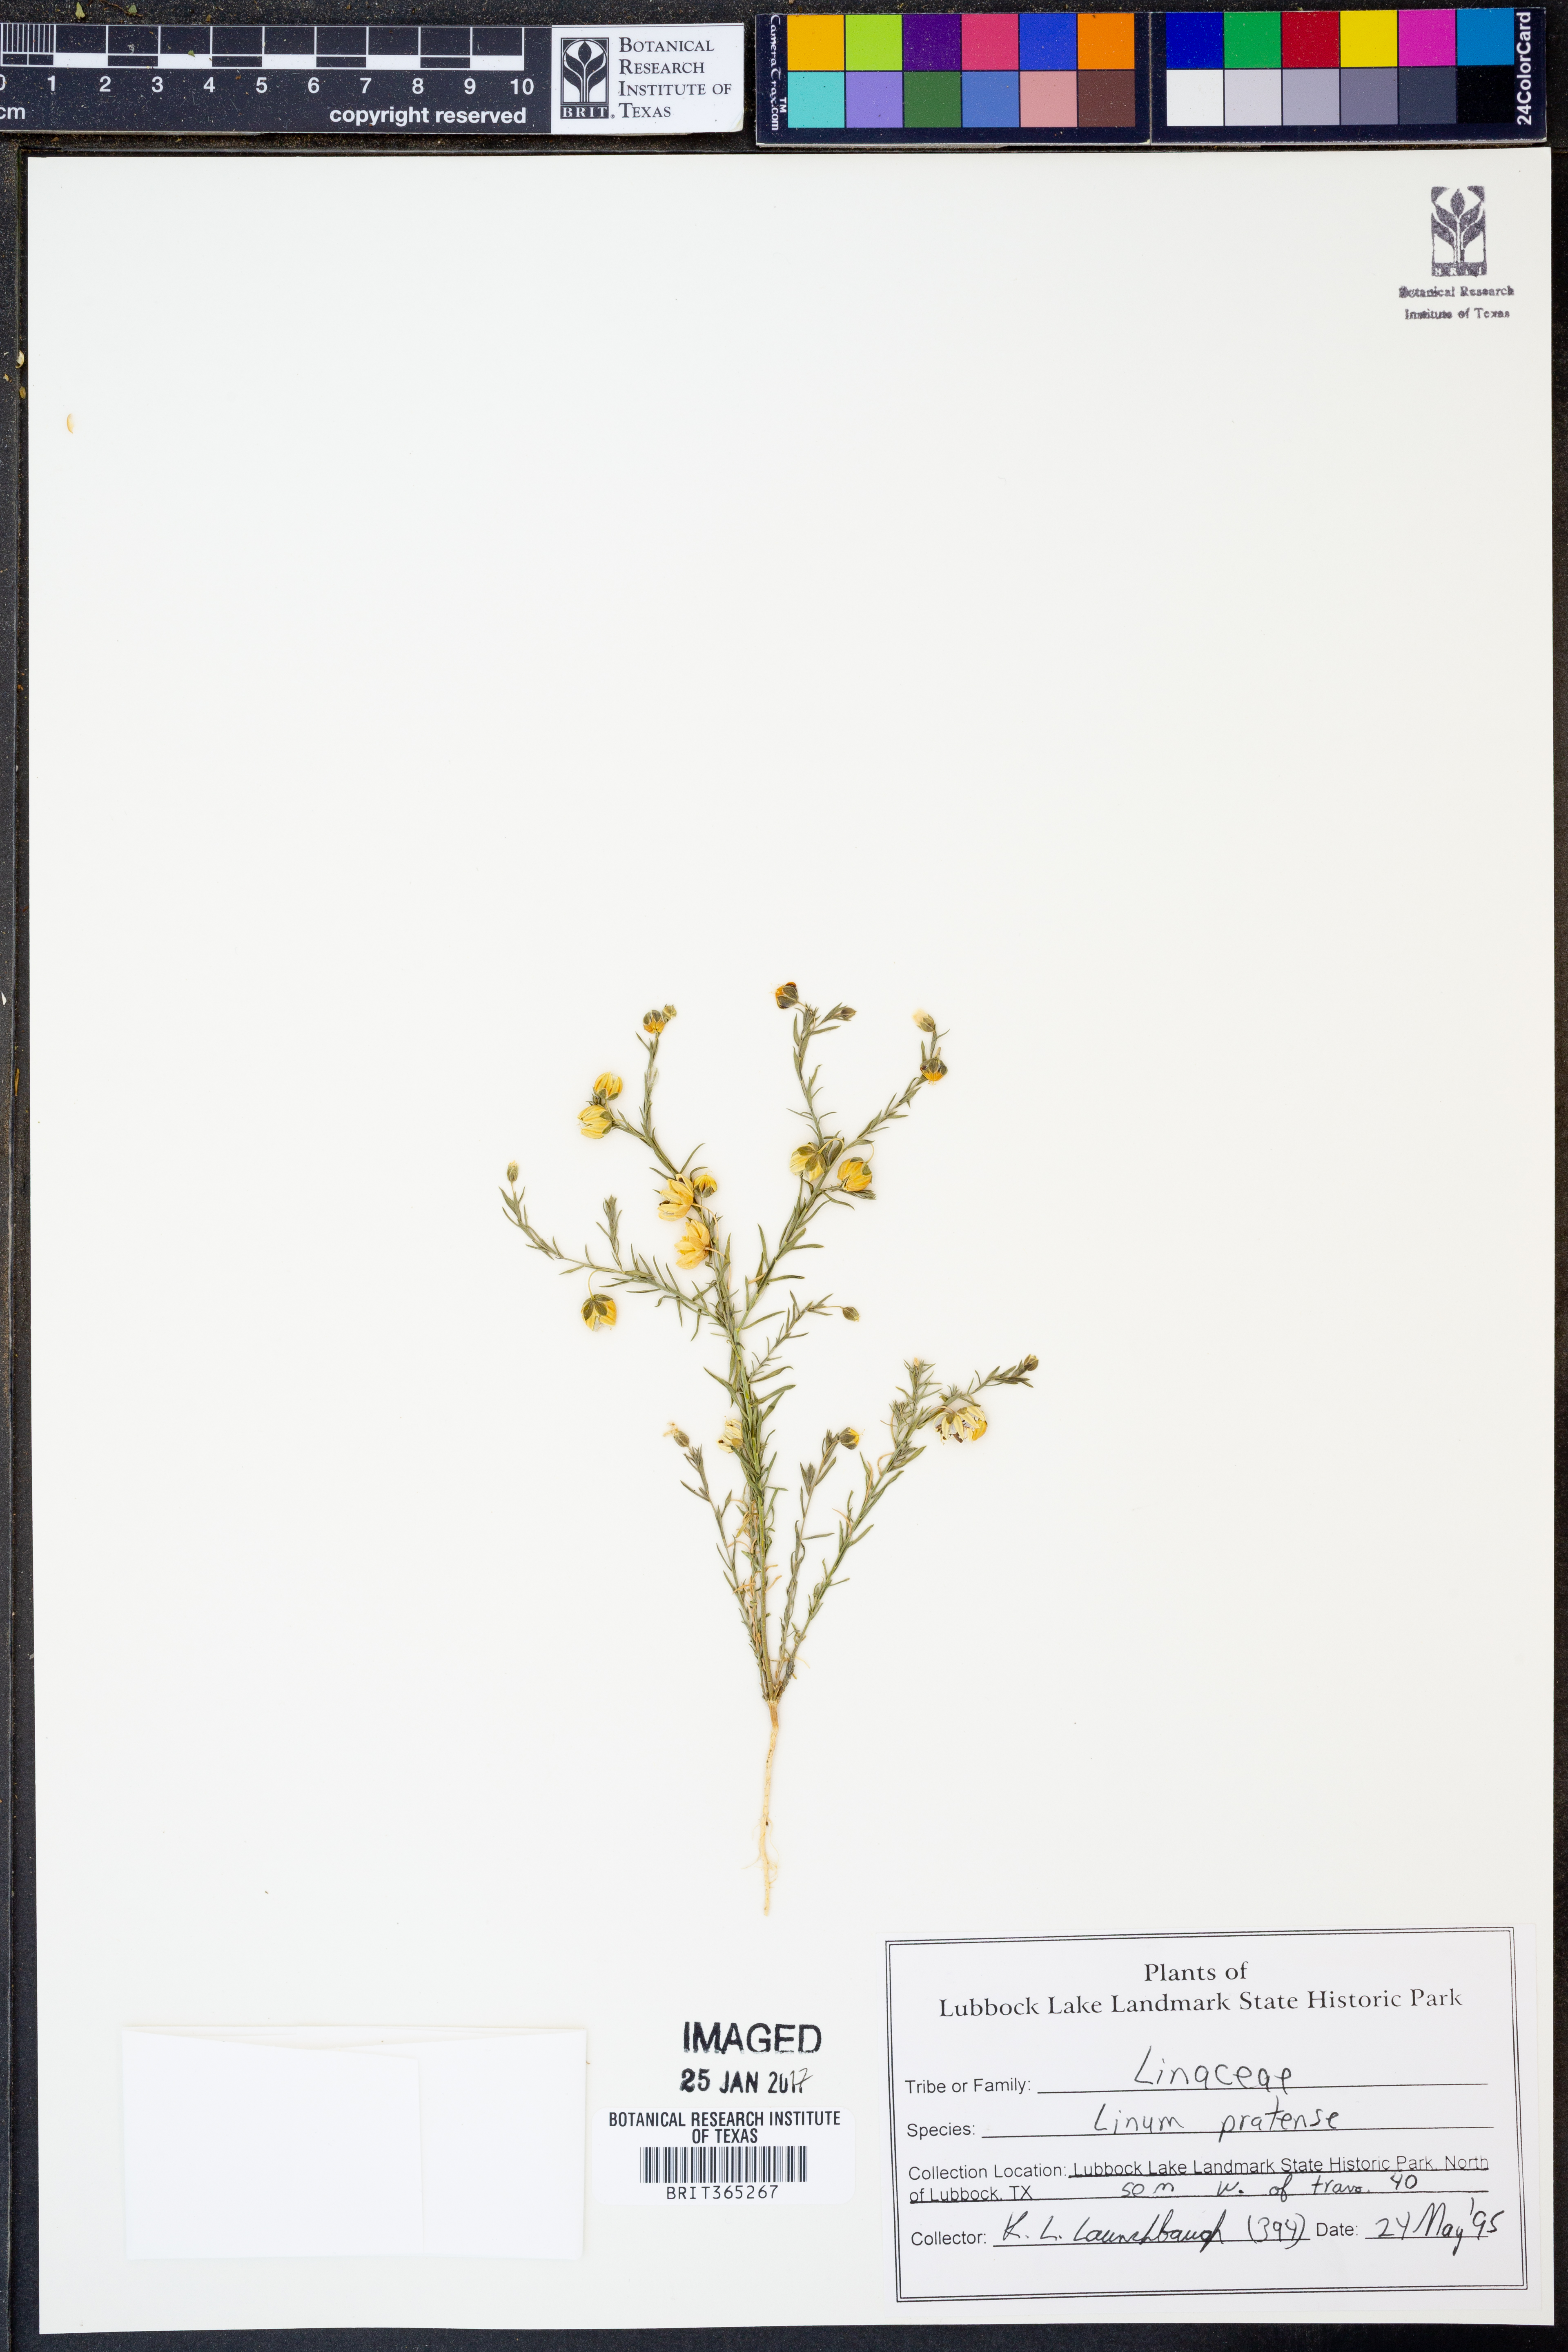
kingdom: Plantae
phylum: Tracheophyta
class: Magnoliopsida
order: Malpighiales
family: Linaceae
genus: Linum
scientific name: Linum pratense
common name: Norton's flax
